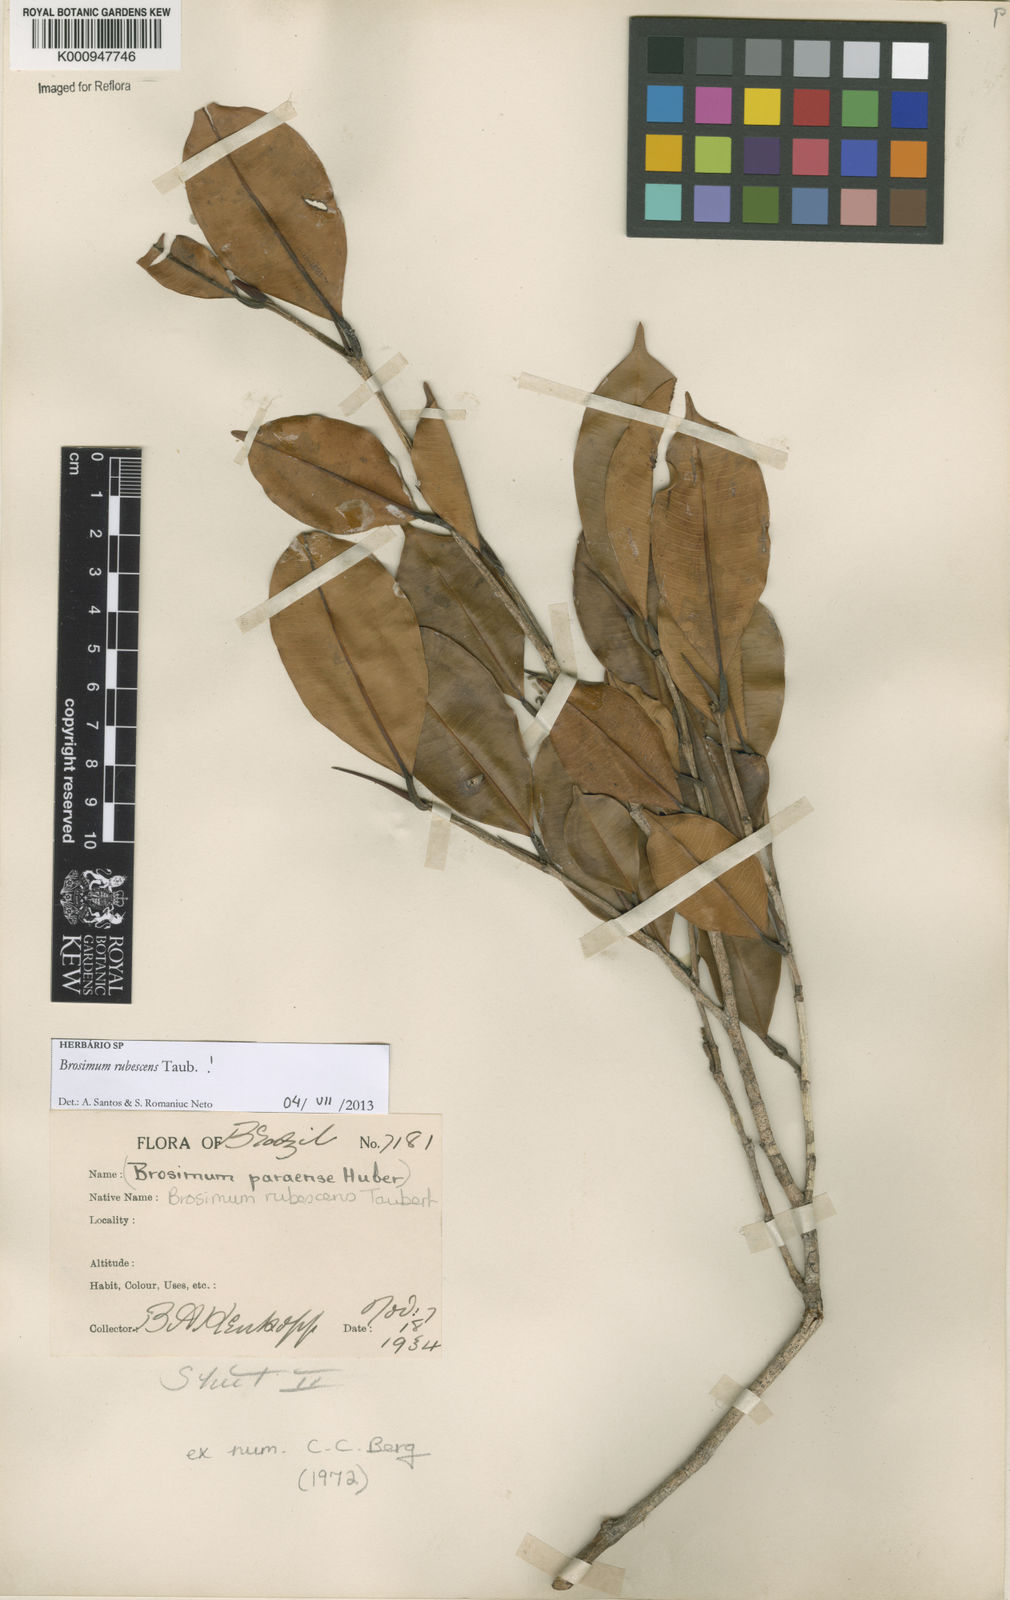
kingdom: Plantae
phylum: Tracheophyta
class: Magnoliopsida
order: Rosales
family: Moraceae
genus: Brosimum
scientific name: Brosimum rubescens
